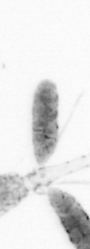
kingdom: Animalia
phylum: Arthropoda
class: Copepoda
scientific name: Copepoda
